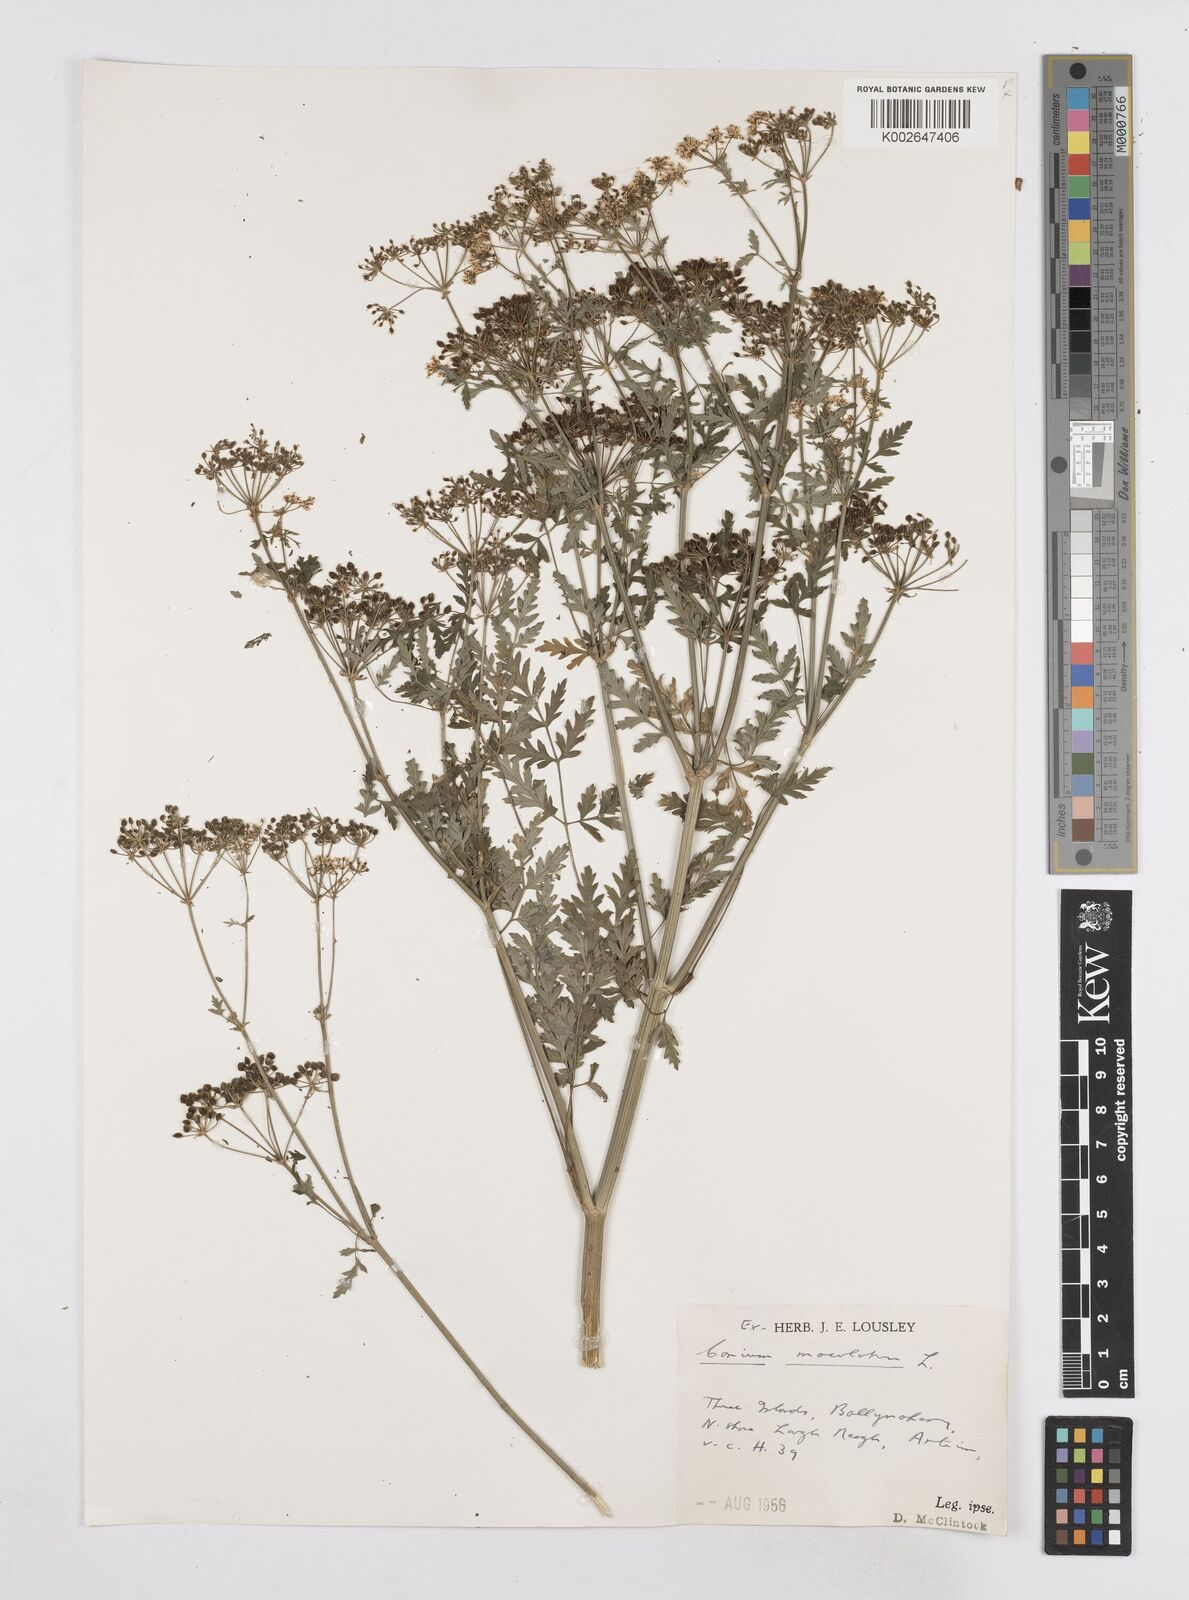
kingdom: Plantae
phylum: Tracheophyta
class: Magnoliopsida
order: Apiales
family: Apiaceae
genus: Conium
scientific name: Conium maculatum
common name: Hemlock
